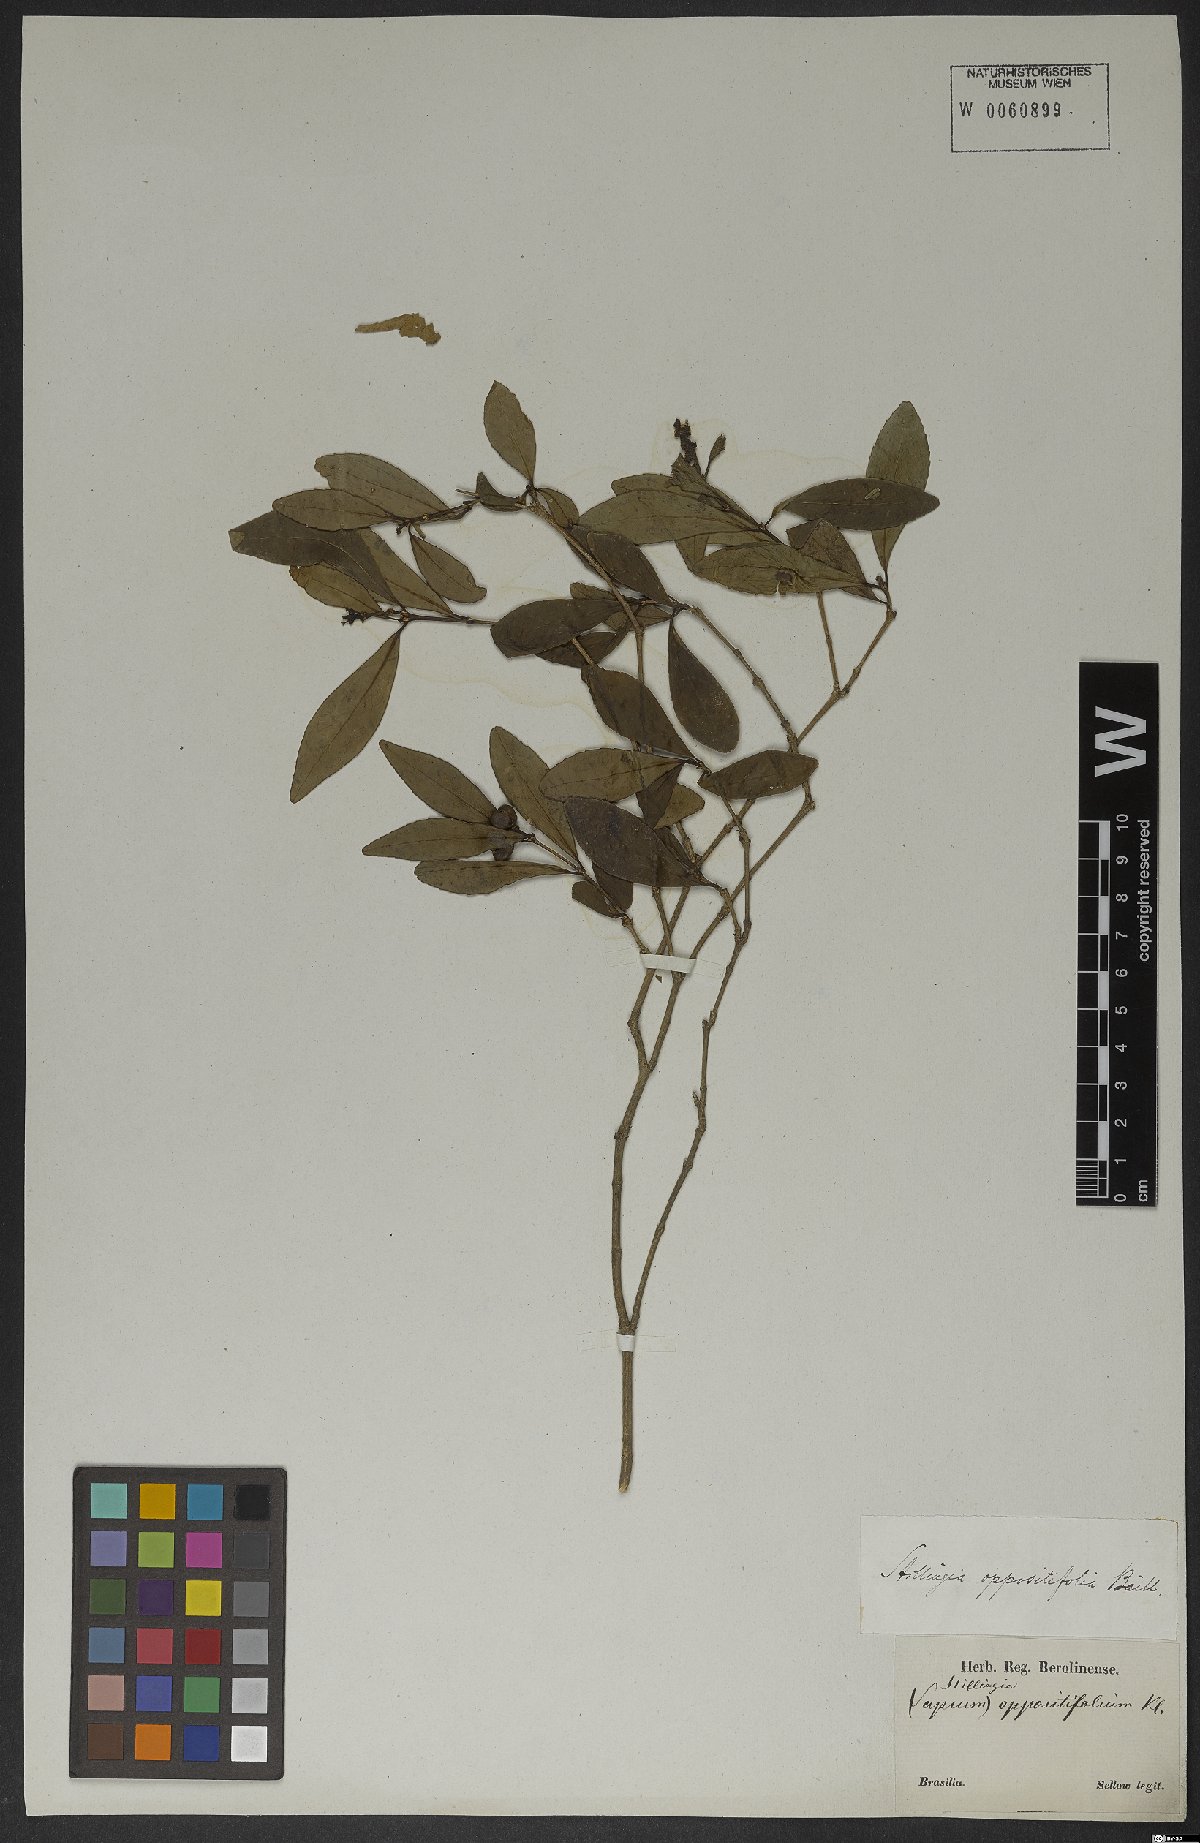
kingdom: Plantae
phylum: Tracheophyta
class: Magnoliopsida
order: Malpighiales
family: Euphorbiaceae
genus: Stillingia
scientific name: Stillingia oppositifolia
